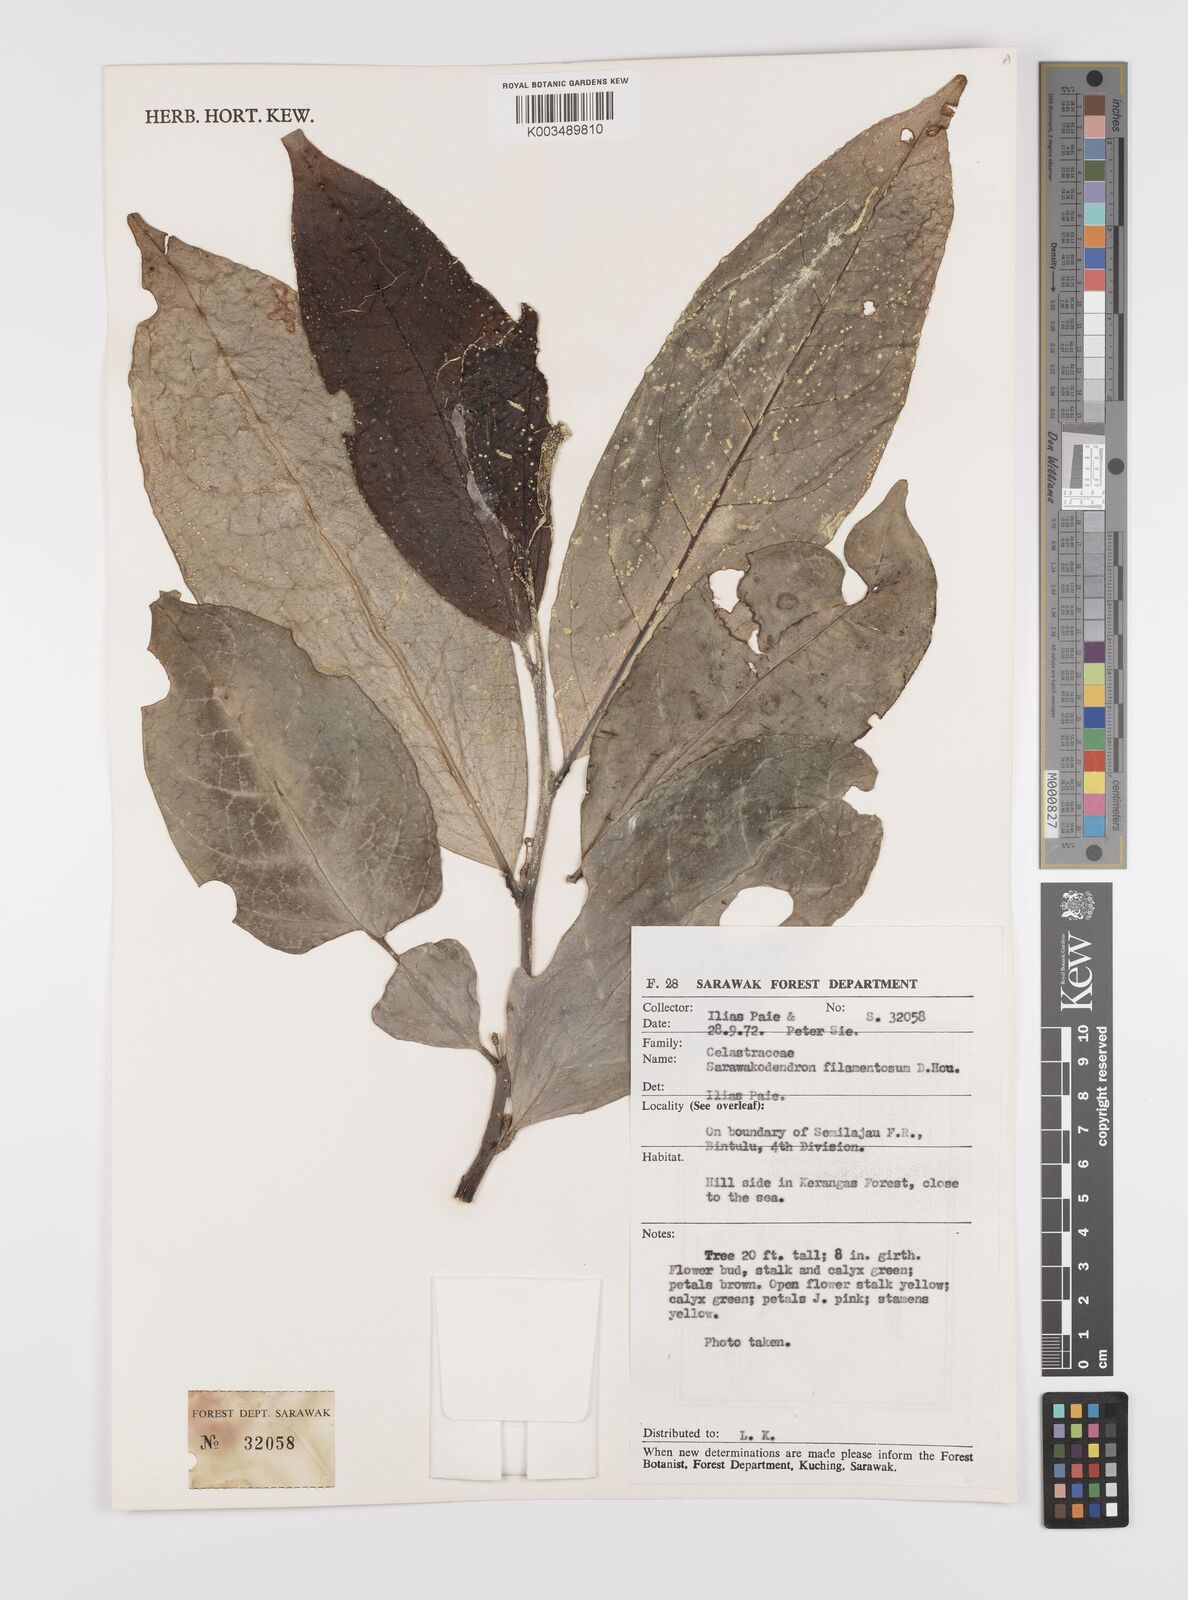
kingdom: Plantae
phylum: Tracheophyta
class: Magnoliopsida
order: Celastrales
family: Celastraceae
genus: Sarawakodendron
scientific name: Sarawakodendron filamentosum
